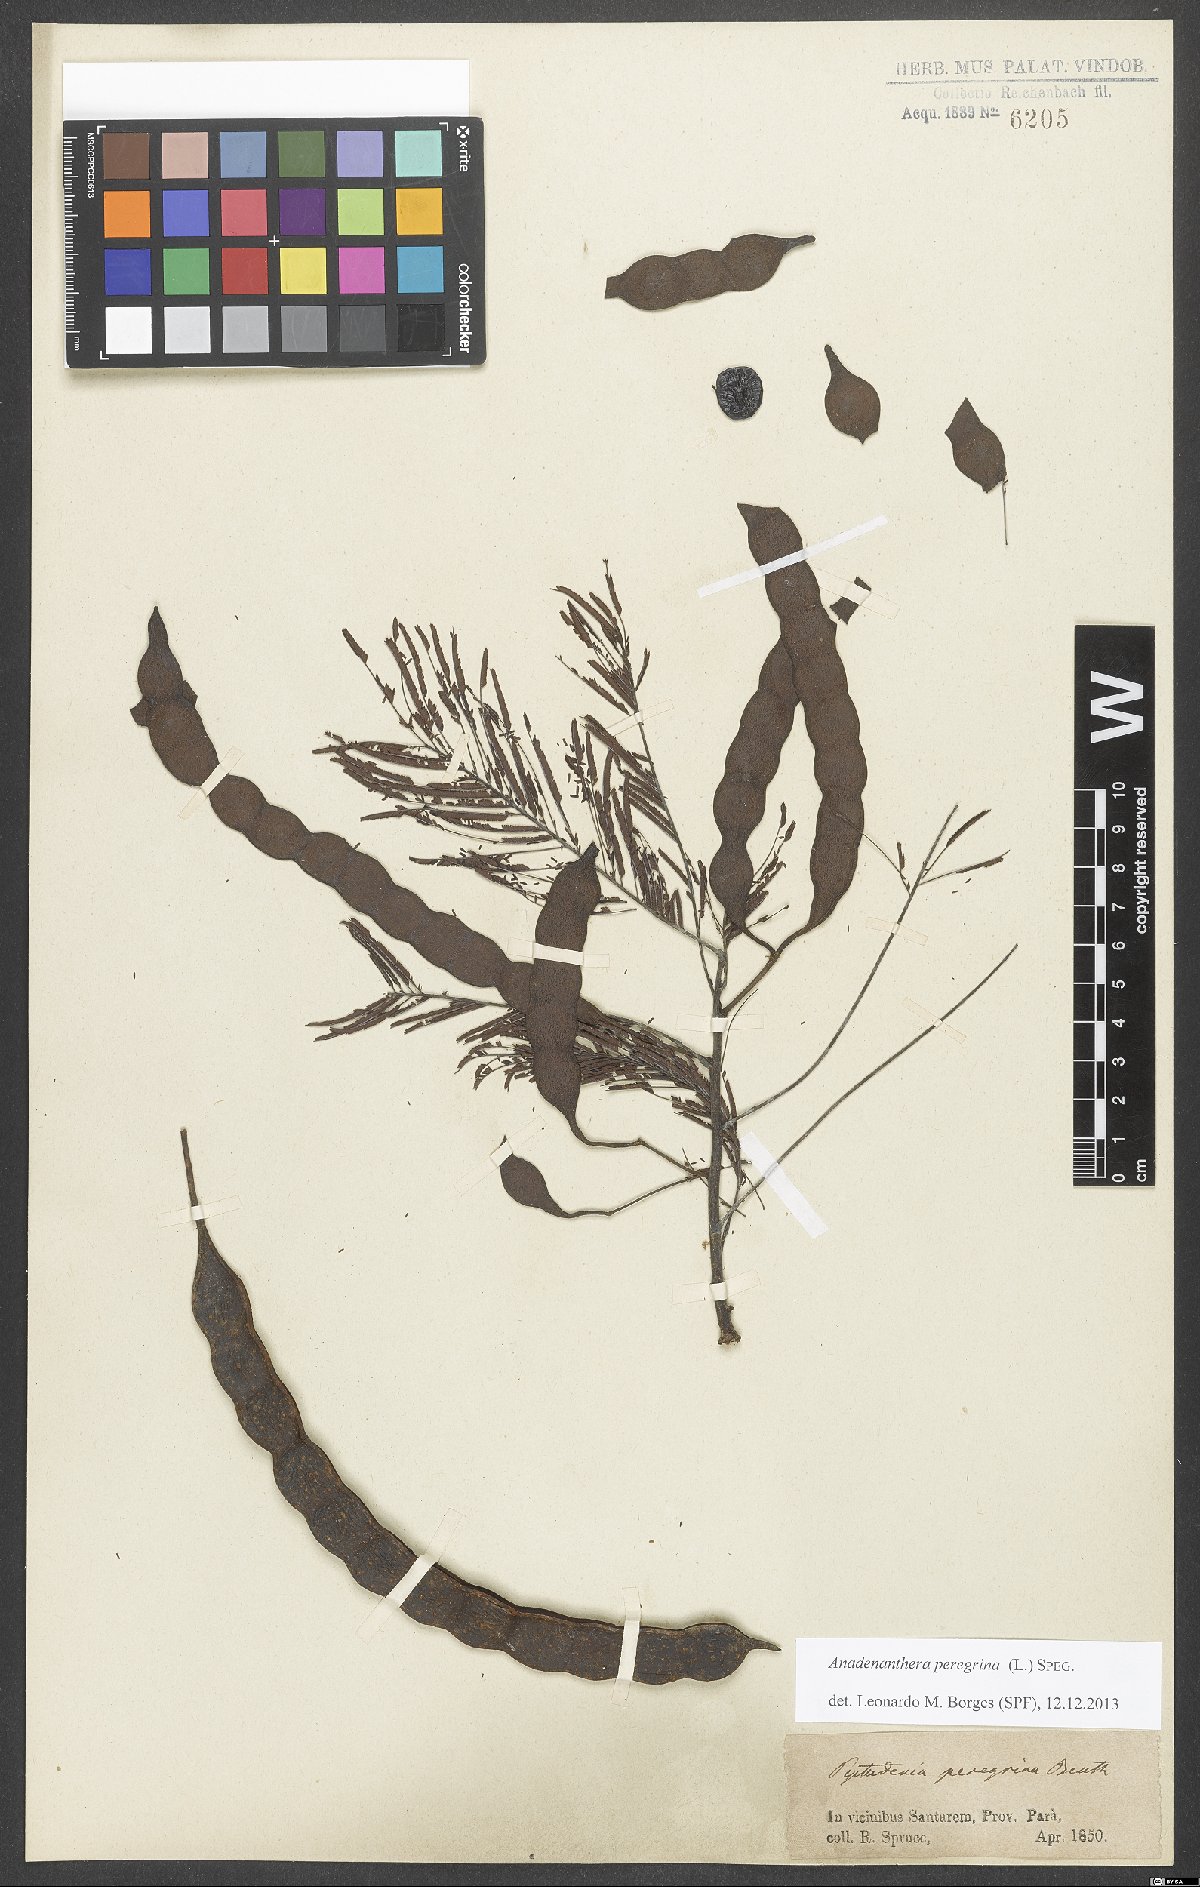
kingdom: Plantae
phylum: Tracheophyta
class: Magnoliopsida
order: Fabales
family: Fabaceae
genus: Anadenanthera
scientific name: Anadenanthera peregrina
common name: Cohoba
